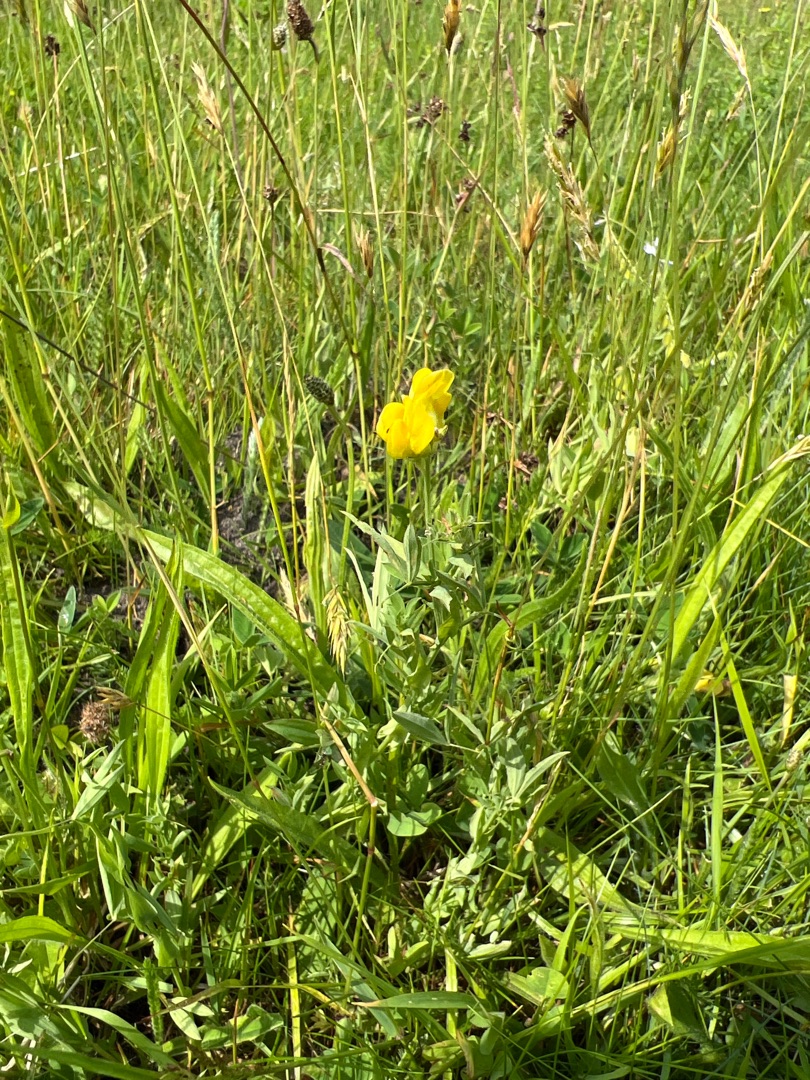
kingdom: Plantae
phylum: Tracheophyta
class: Magnoliopsida
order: Fabales
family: Fabaceae
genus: Lathyrus
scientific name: Lathyrus pratensis
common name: Gul fladbælg
